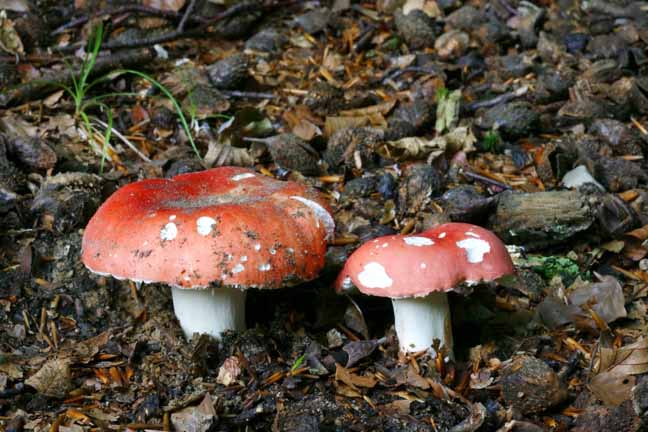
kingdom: Fungi
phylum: Basidiomycota
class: Agaricomycetes
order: Russulales
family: Russulaceae
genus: Russula
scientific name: Russula rosea
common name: fastkødet skørhat
